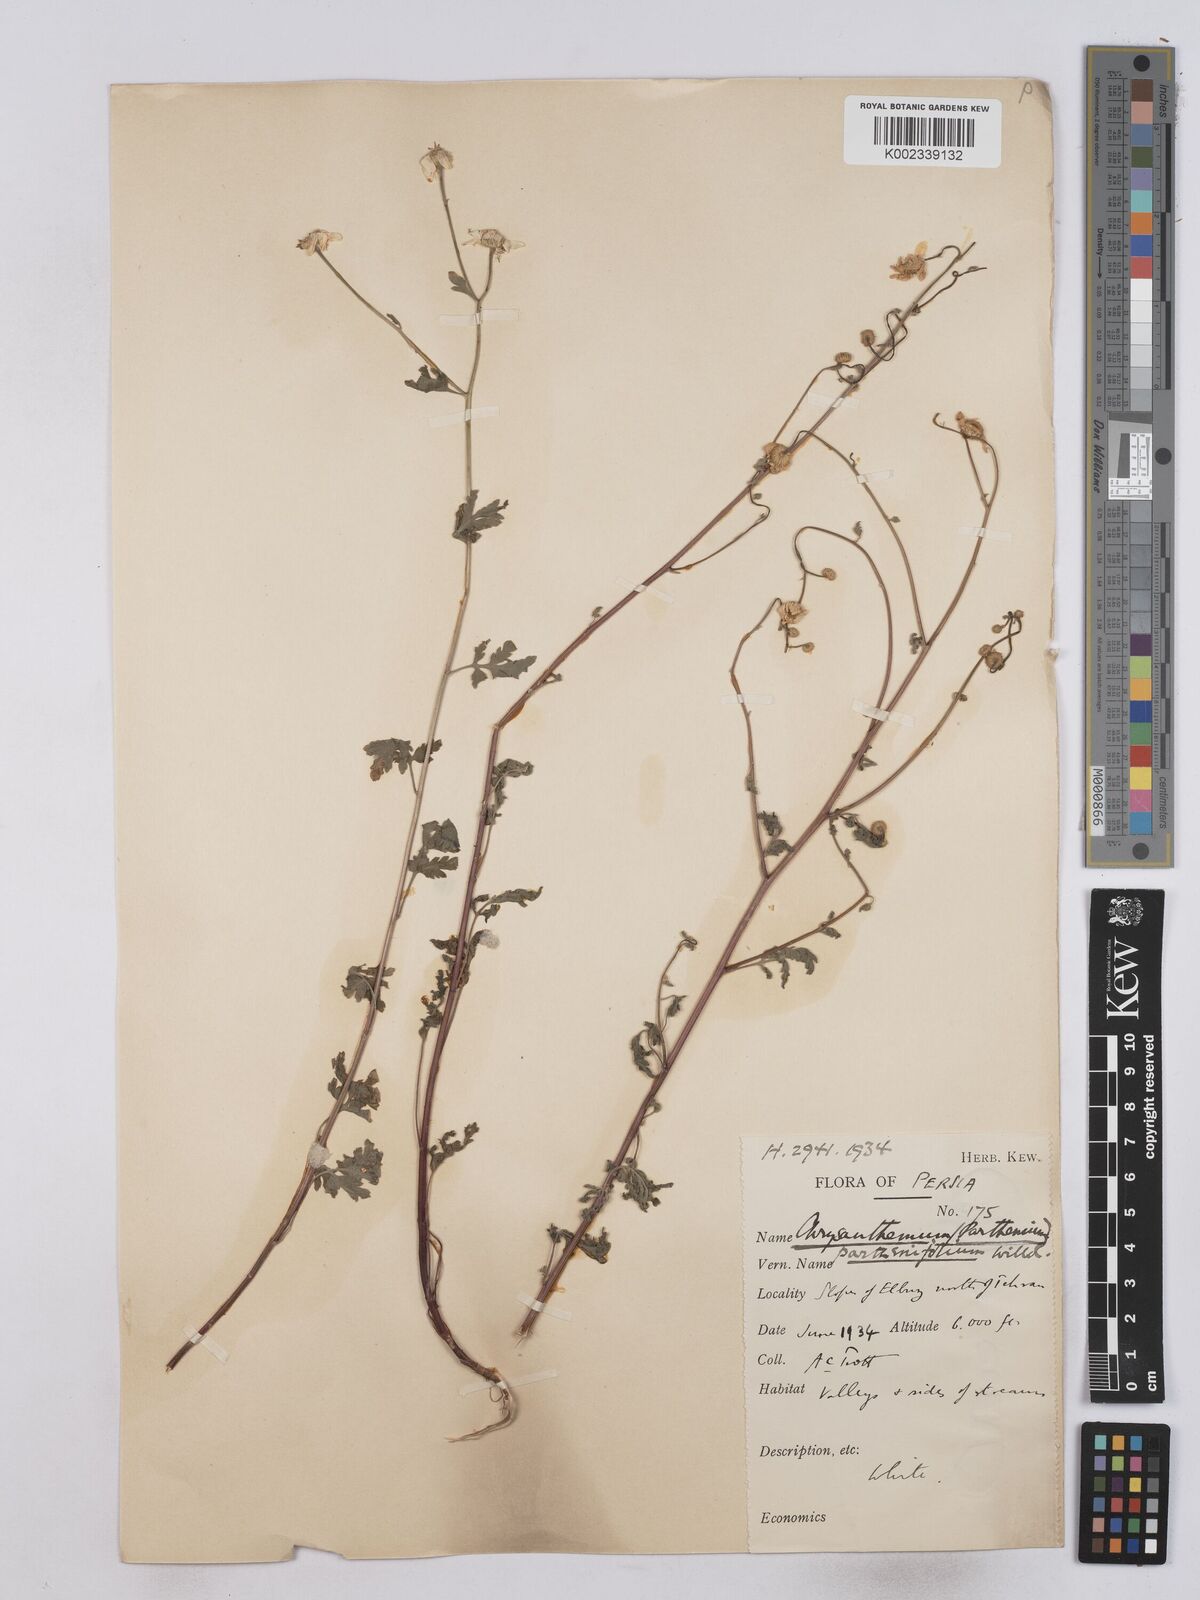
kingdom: Plantae
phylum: Tracheophyta
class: Magnoliopsida
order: Asterales
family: Asteraceae
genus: Tanacetum
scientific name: Tanacetum partheniifolium
